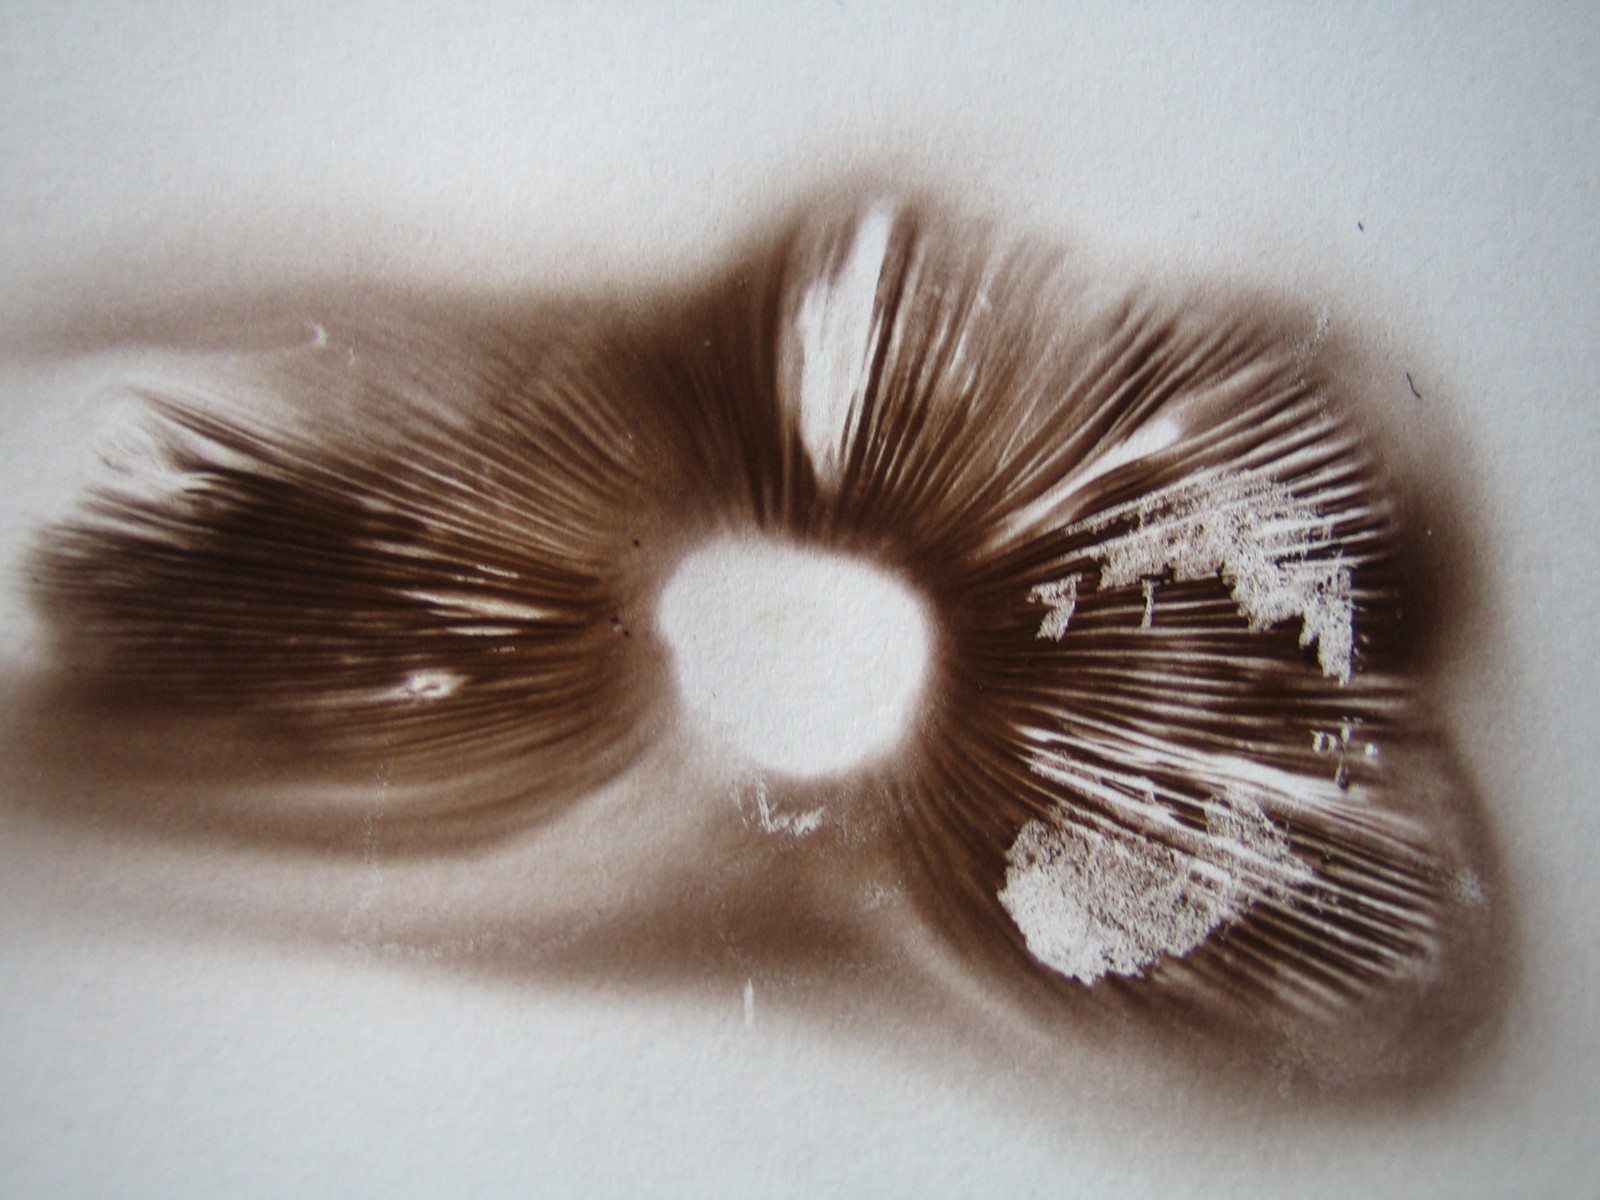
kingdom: Fungi
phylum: Basidiomycota
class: Agaricomycetes
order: Agaricales
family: Psathyrellaceae
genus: Candolleomyces
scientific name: Candolleomyces candolleanus
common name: Candolles mørkhat
